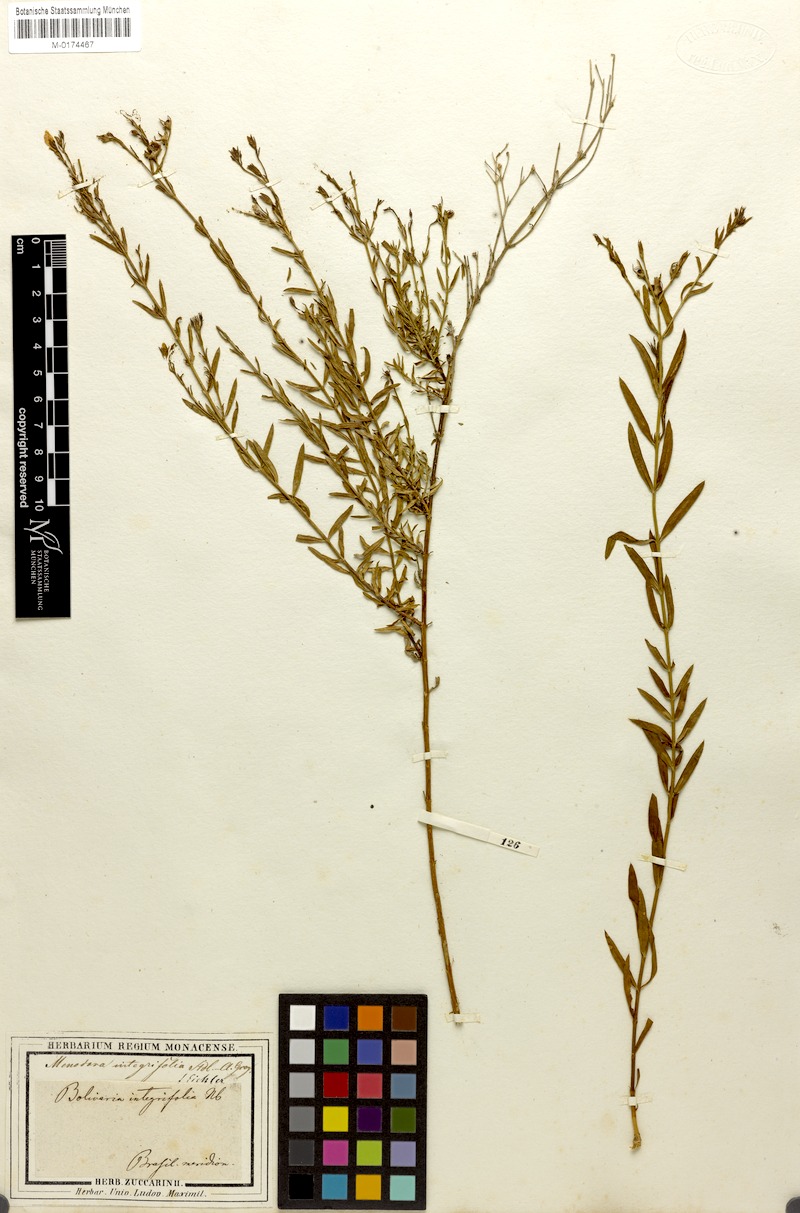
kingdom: Plantae
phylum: Tracheophyta
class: Magnoliopsida
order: Lamiales
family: Oleaceae
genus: Menodora
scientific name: Menodora integrifolia
